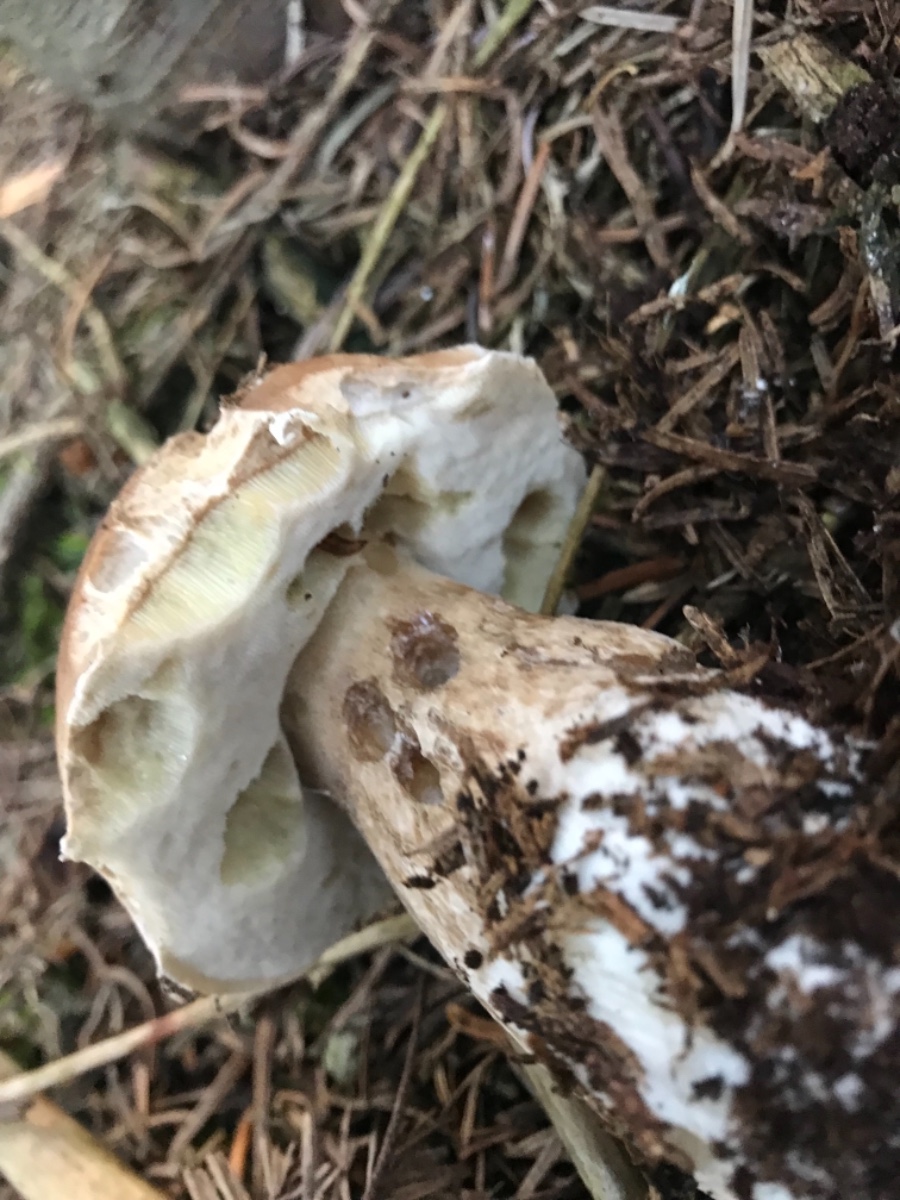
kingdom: Fungi
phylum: Basidiomycota
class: Agaricomycetes
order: Boletales
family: Boletaceae
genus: Boletus
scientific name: Boletus edulis
